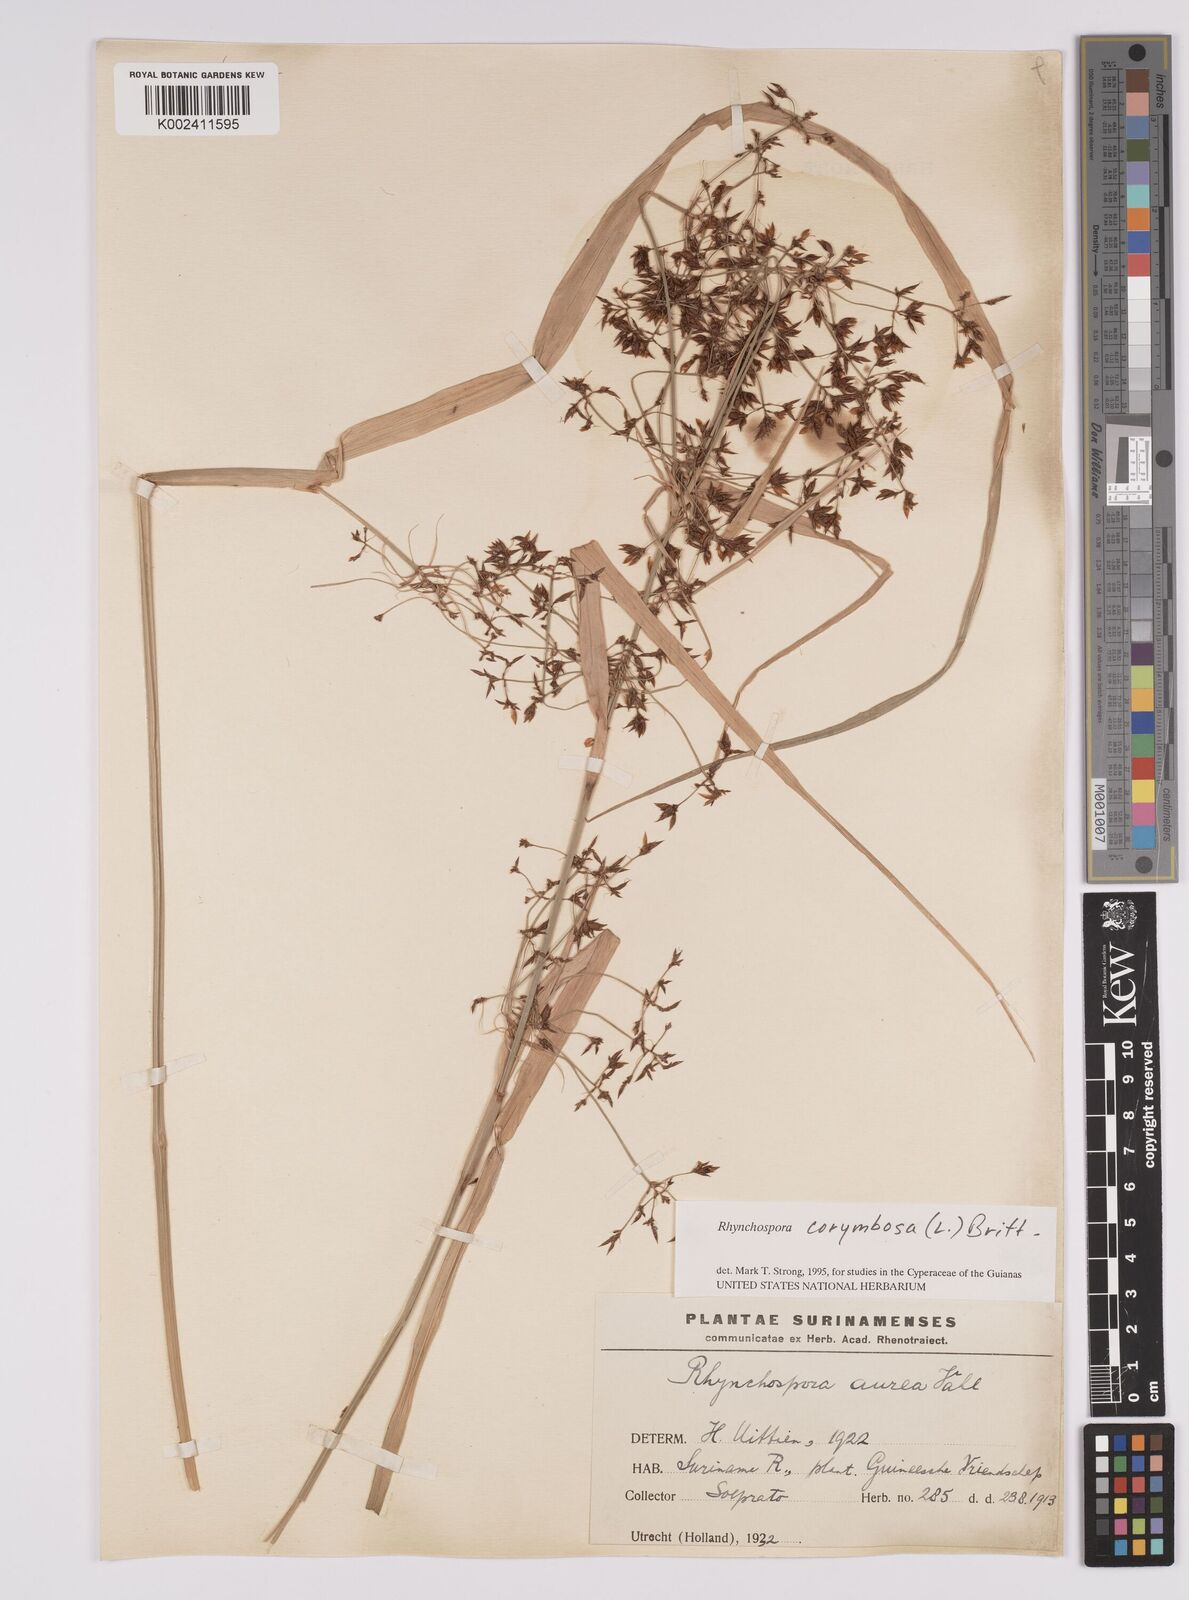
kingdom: Plantae
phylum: Tracheophyta
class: Liliopsida
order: Poales
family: Cyperaceae
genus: Rhynchospora
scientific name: Rhynchospora corymbosa
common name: Golden beak sedge
